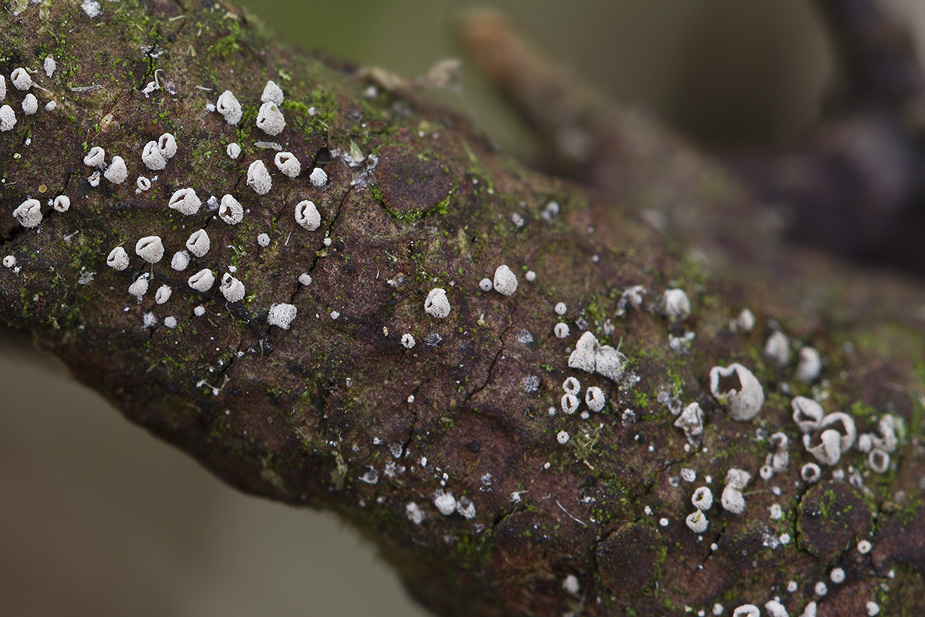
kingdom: Fungi
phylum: Basidiomycota
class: Agaricomycetes
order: Agaricales
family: Pleurotaceae
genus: Resupinatus
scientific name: Resupinatus griseopallidus
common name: ene-barkhat
